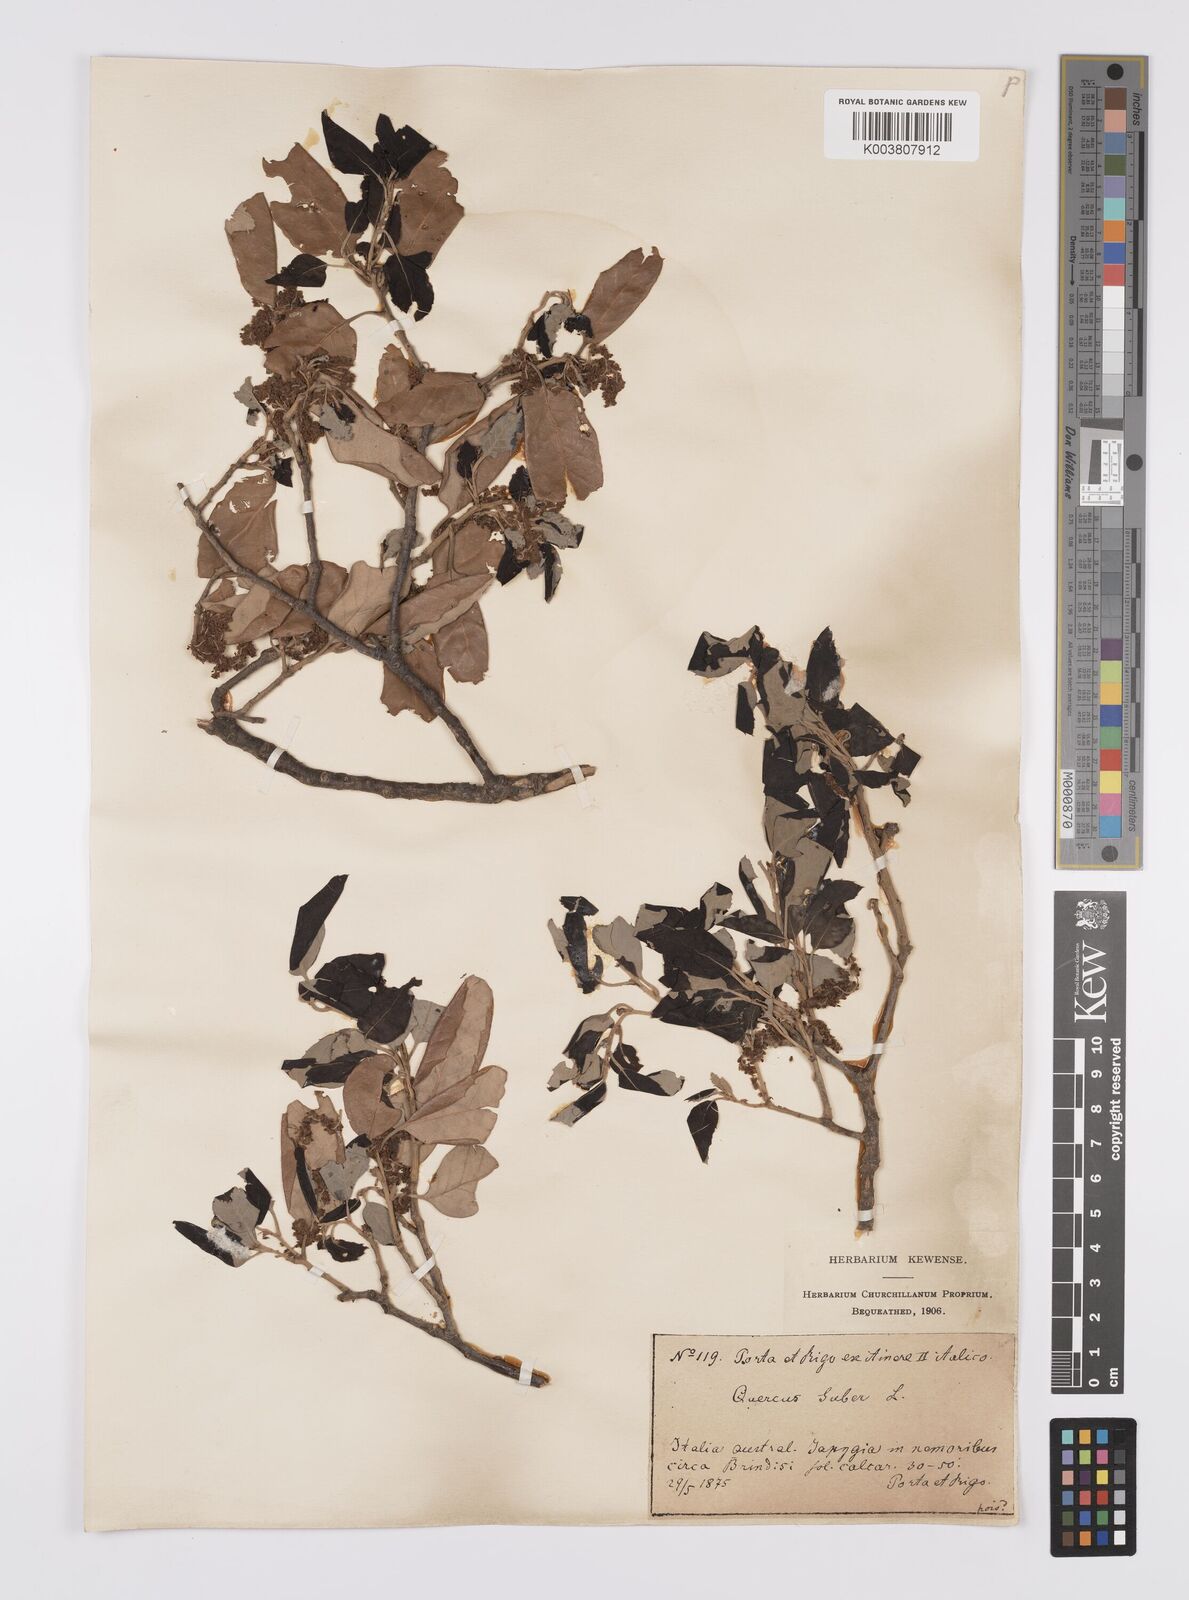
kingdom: Plantae
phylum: Tracheophyta
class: Magnoliopsida
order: Fagales
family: Fagaceae
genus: Quercus
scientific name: Quercus suber
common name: Cork oak
